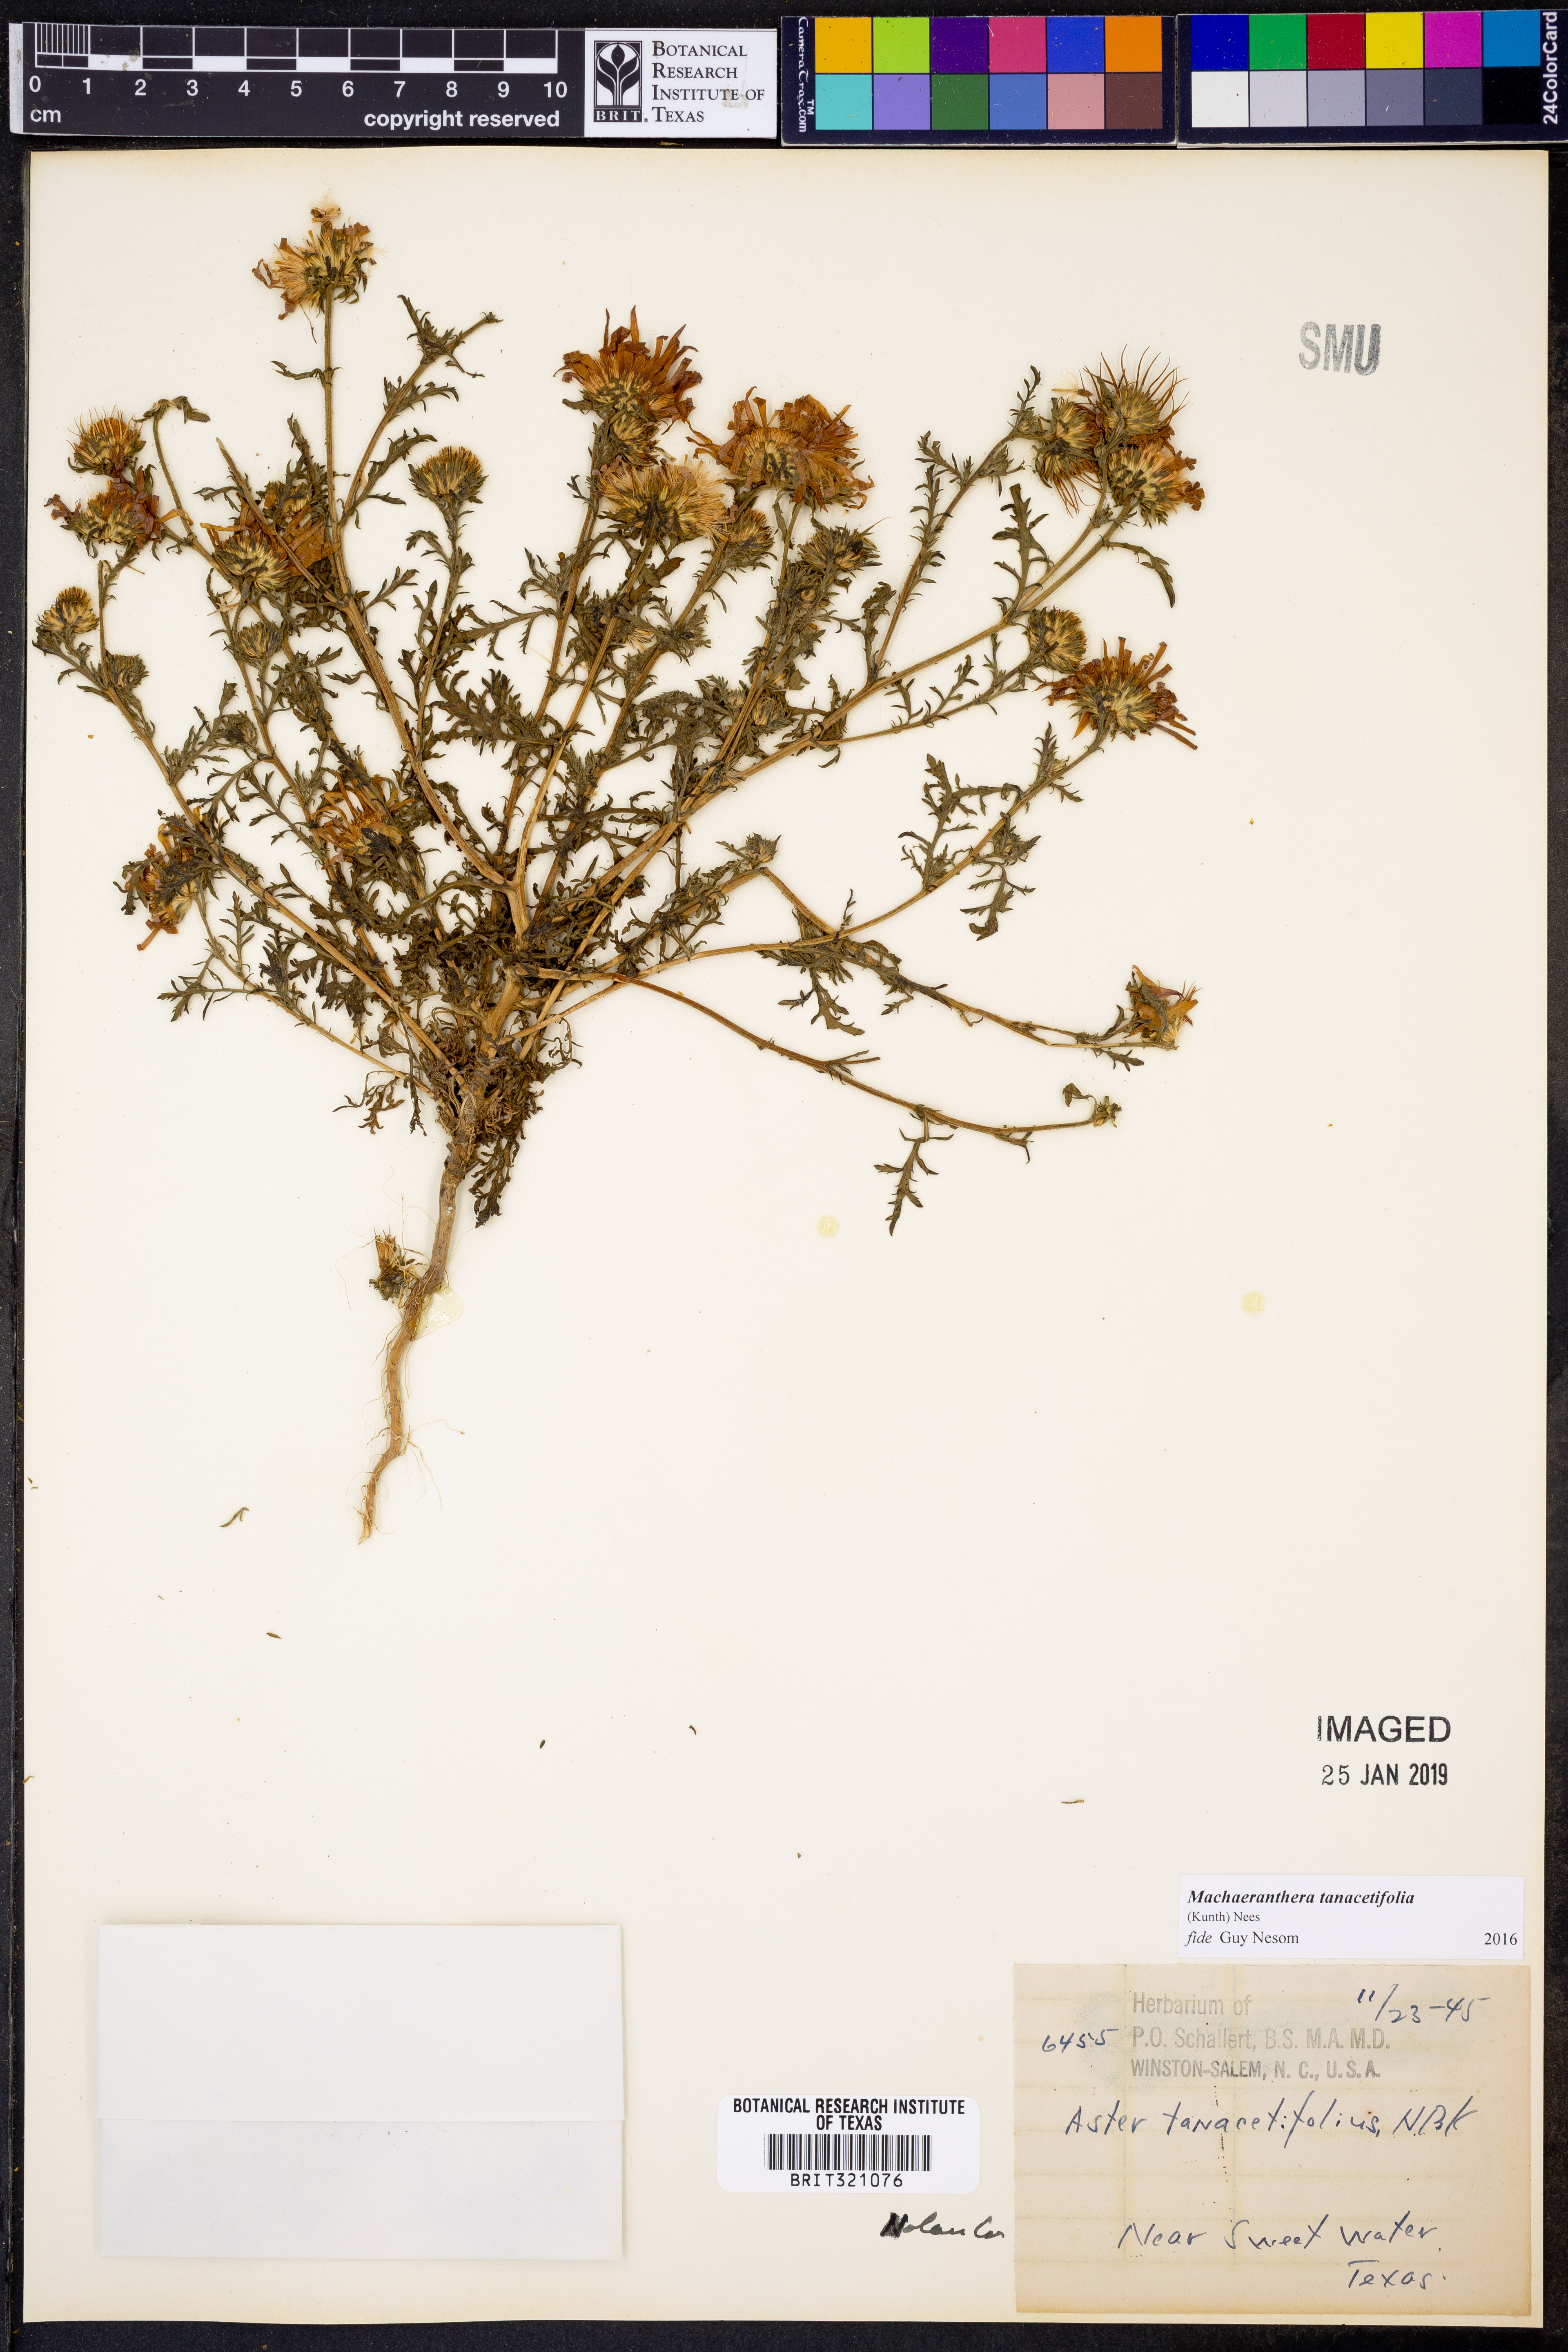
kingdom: Plantae
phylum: Tracheophyta
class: Magnoliopsida
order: Asterales
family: Asteraceae
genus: Machaeranthera
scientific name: Machaeranthera tanacetifolia
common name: Tansy-aster
